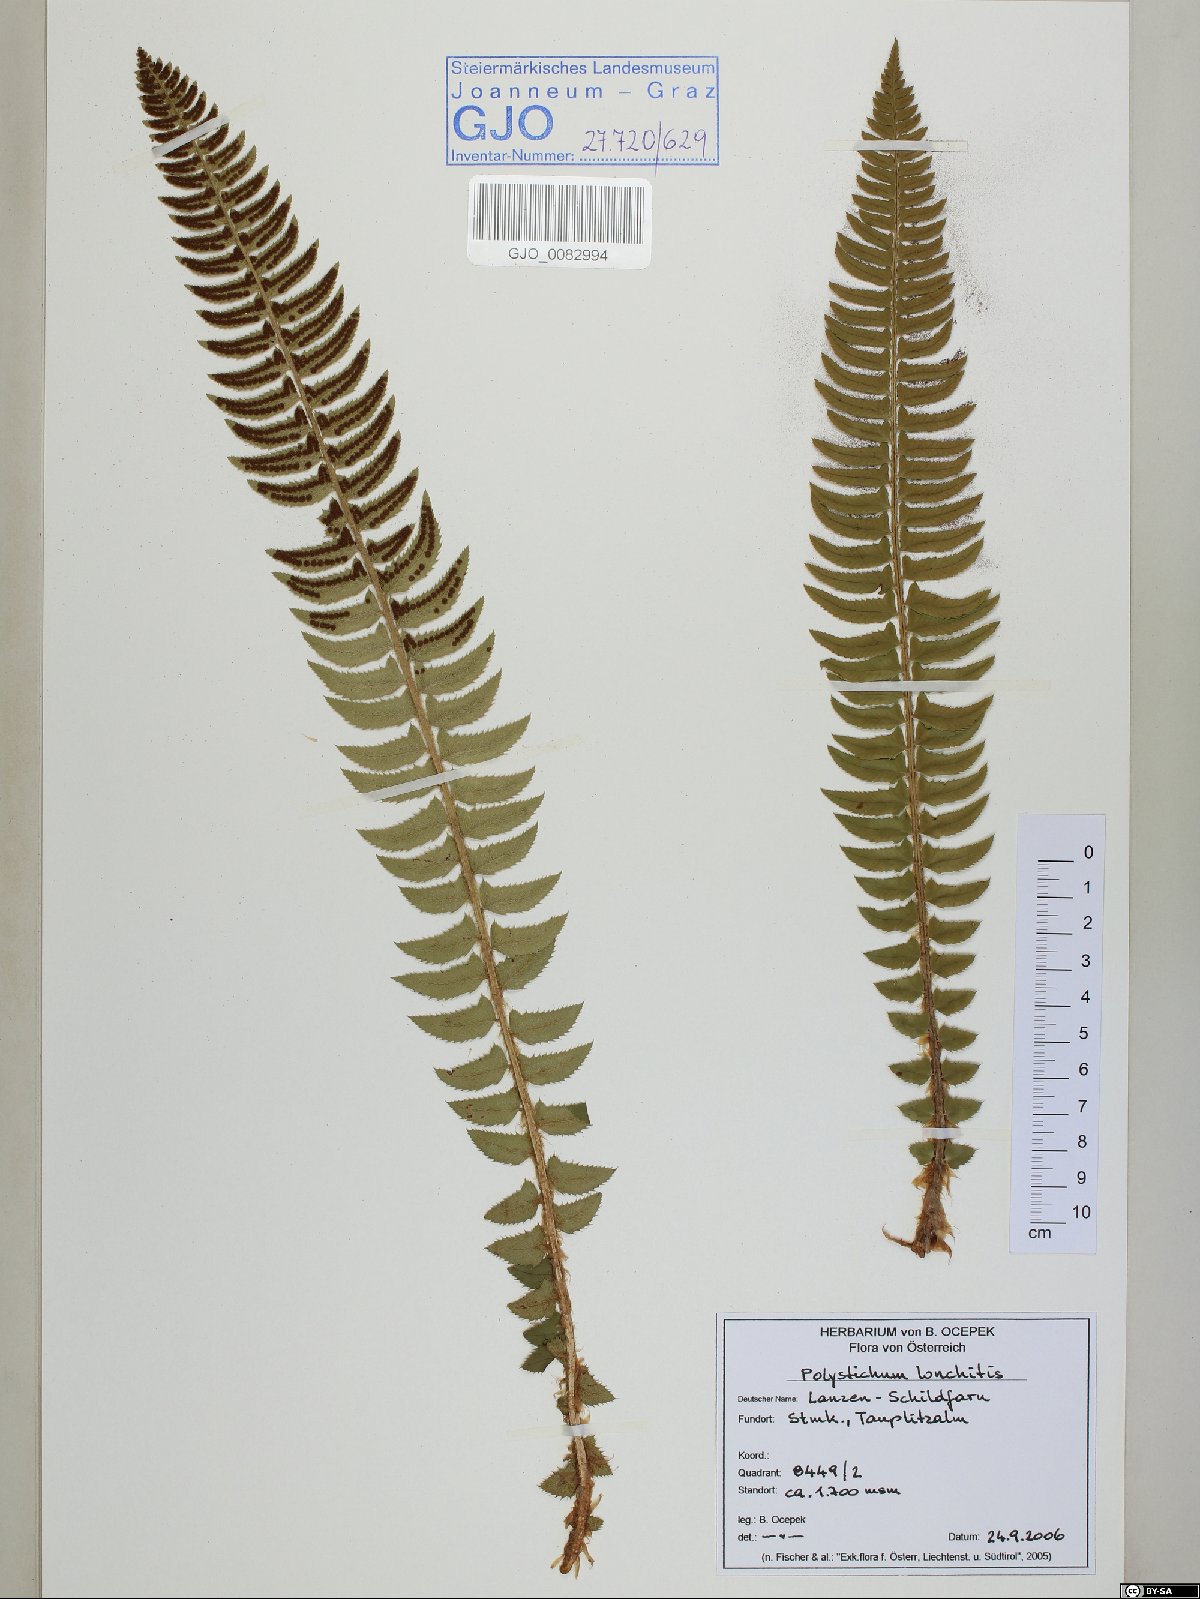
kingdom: Plantae
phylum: Tracheophyta
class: Polypodiopsida
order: Polypodiales
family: Dryopteridaceae
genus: Polystichum
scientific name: Polystichum lonchitis
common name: Holly fern
